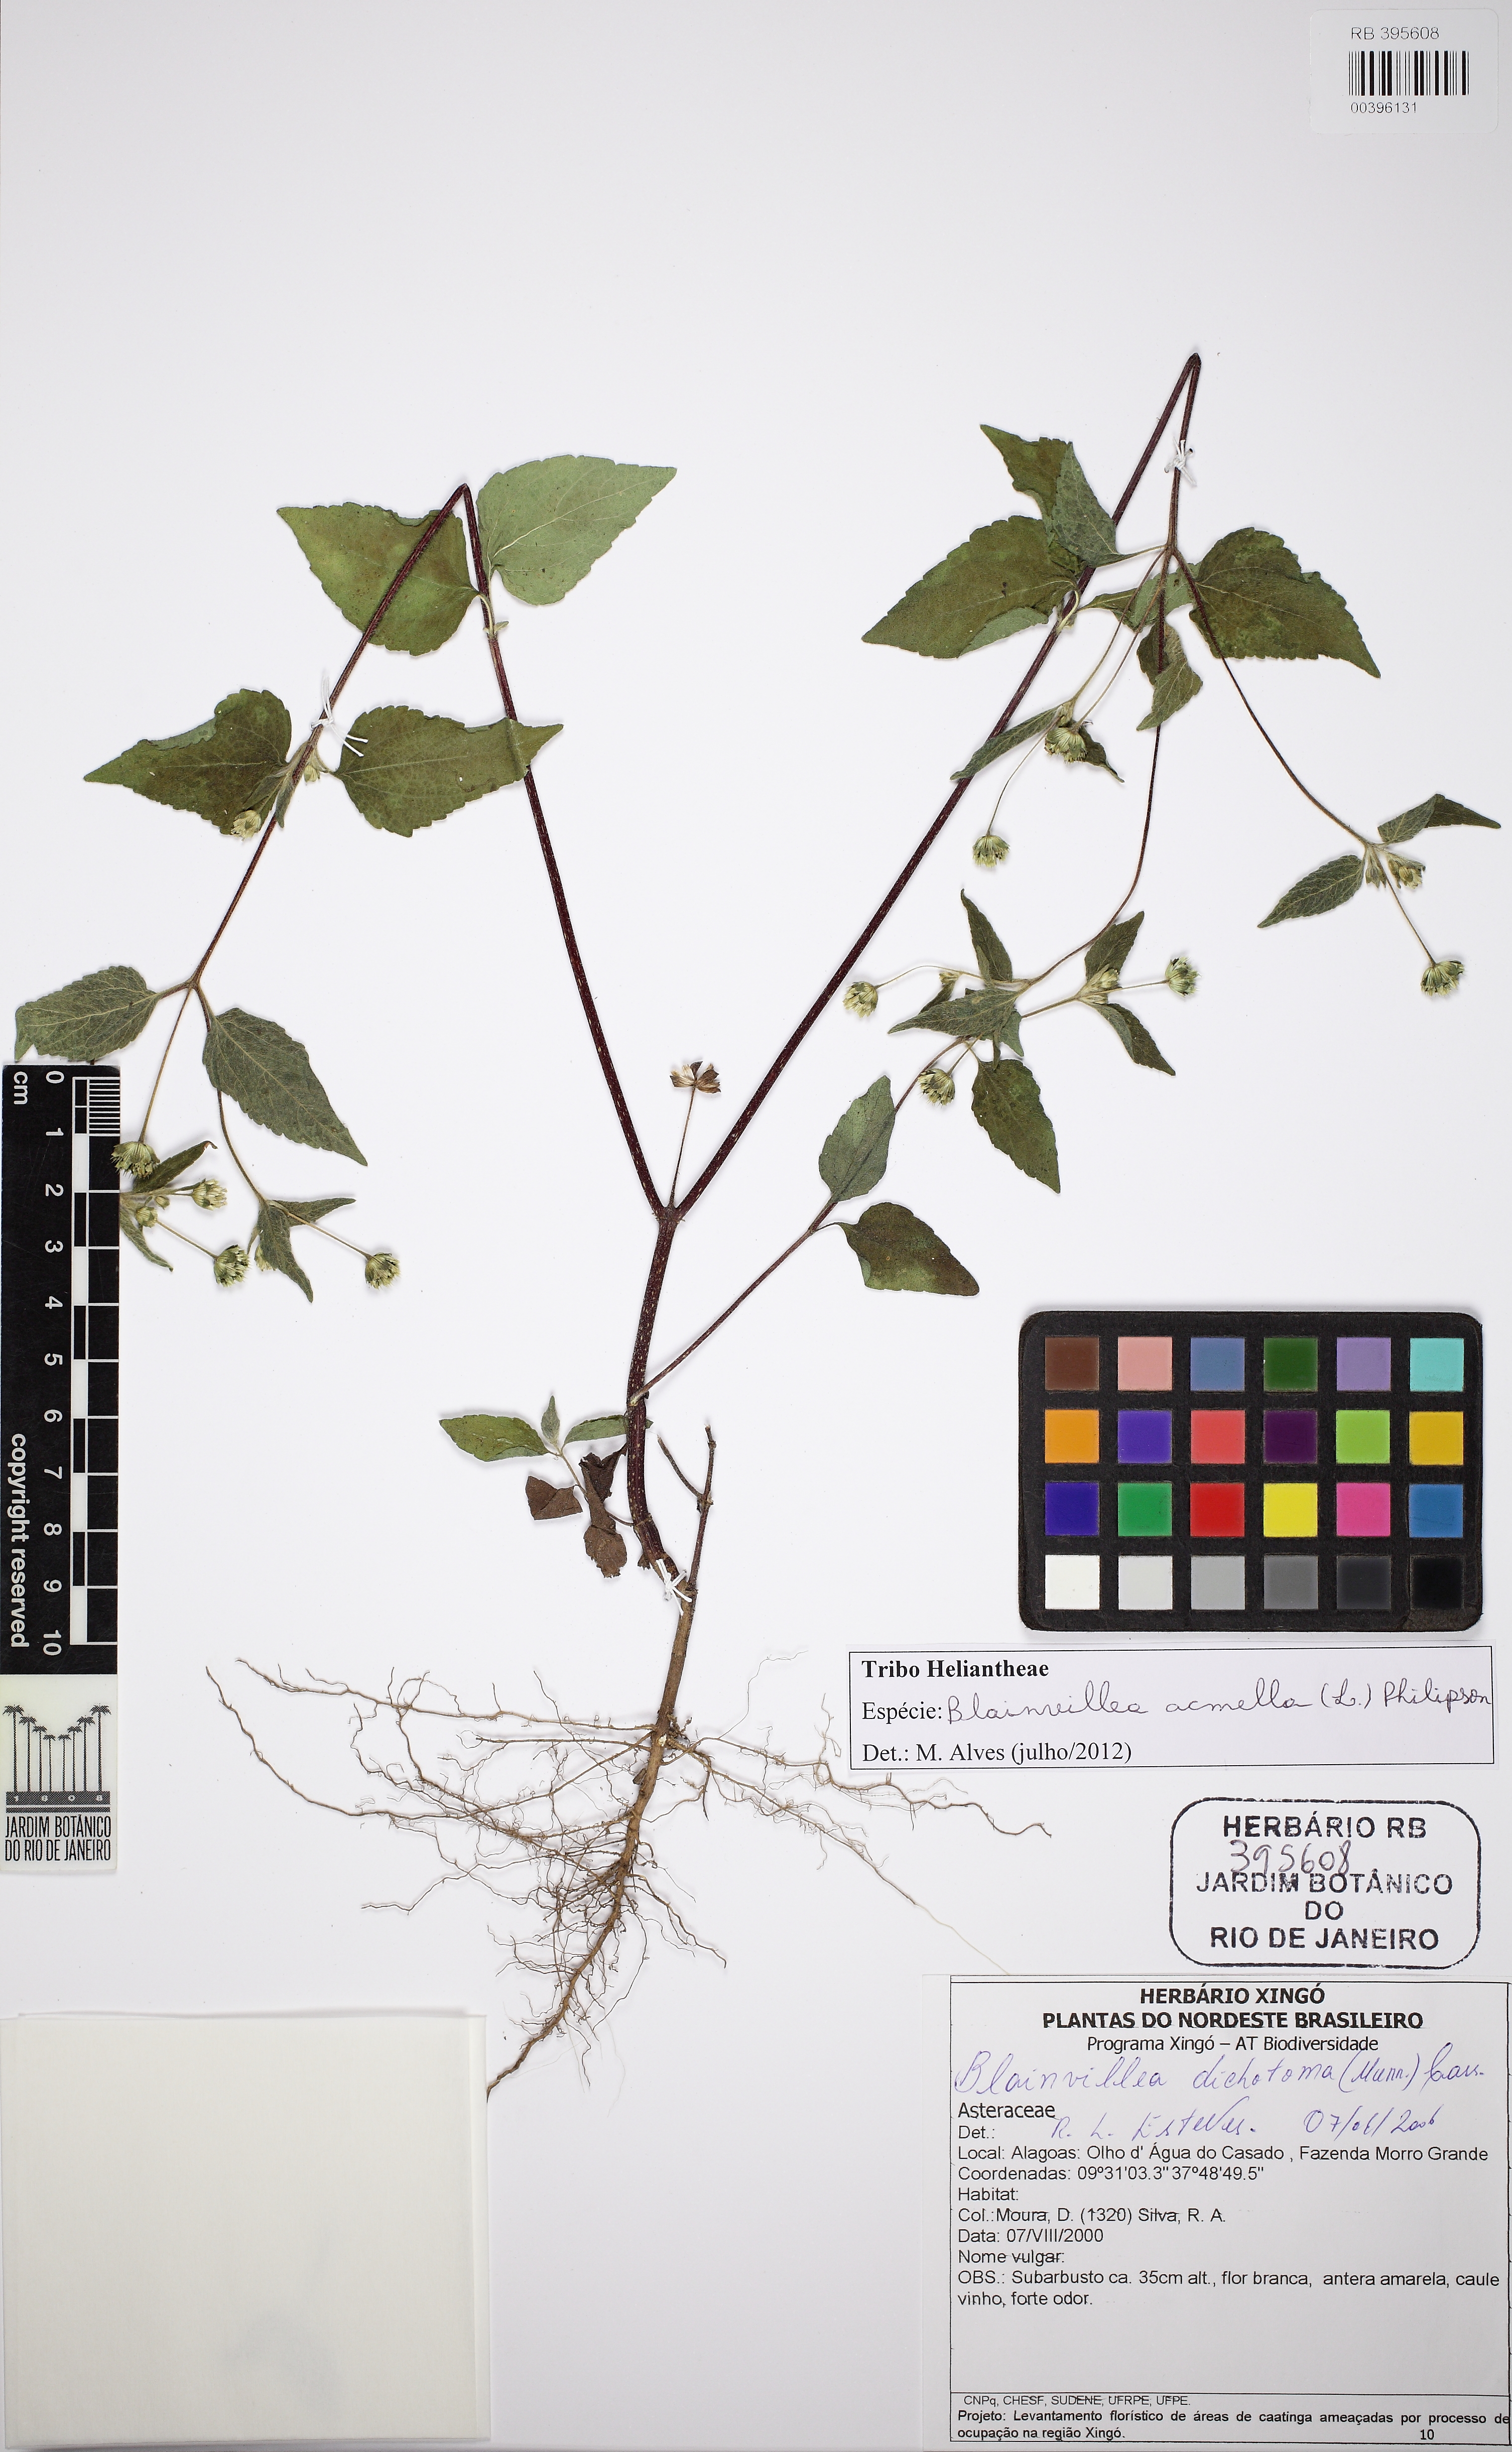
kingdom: Plantae
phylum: Tracheophyta
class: Magnoliopsida
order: Asterales
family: Asteraceae
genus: Blainvillea
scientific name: Blainvillea acmella
